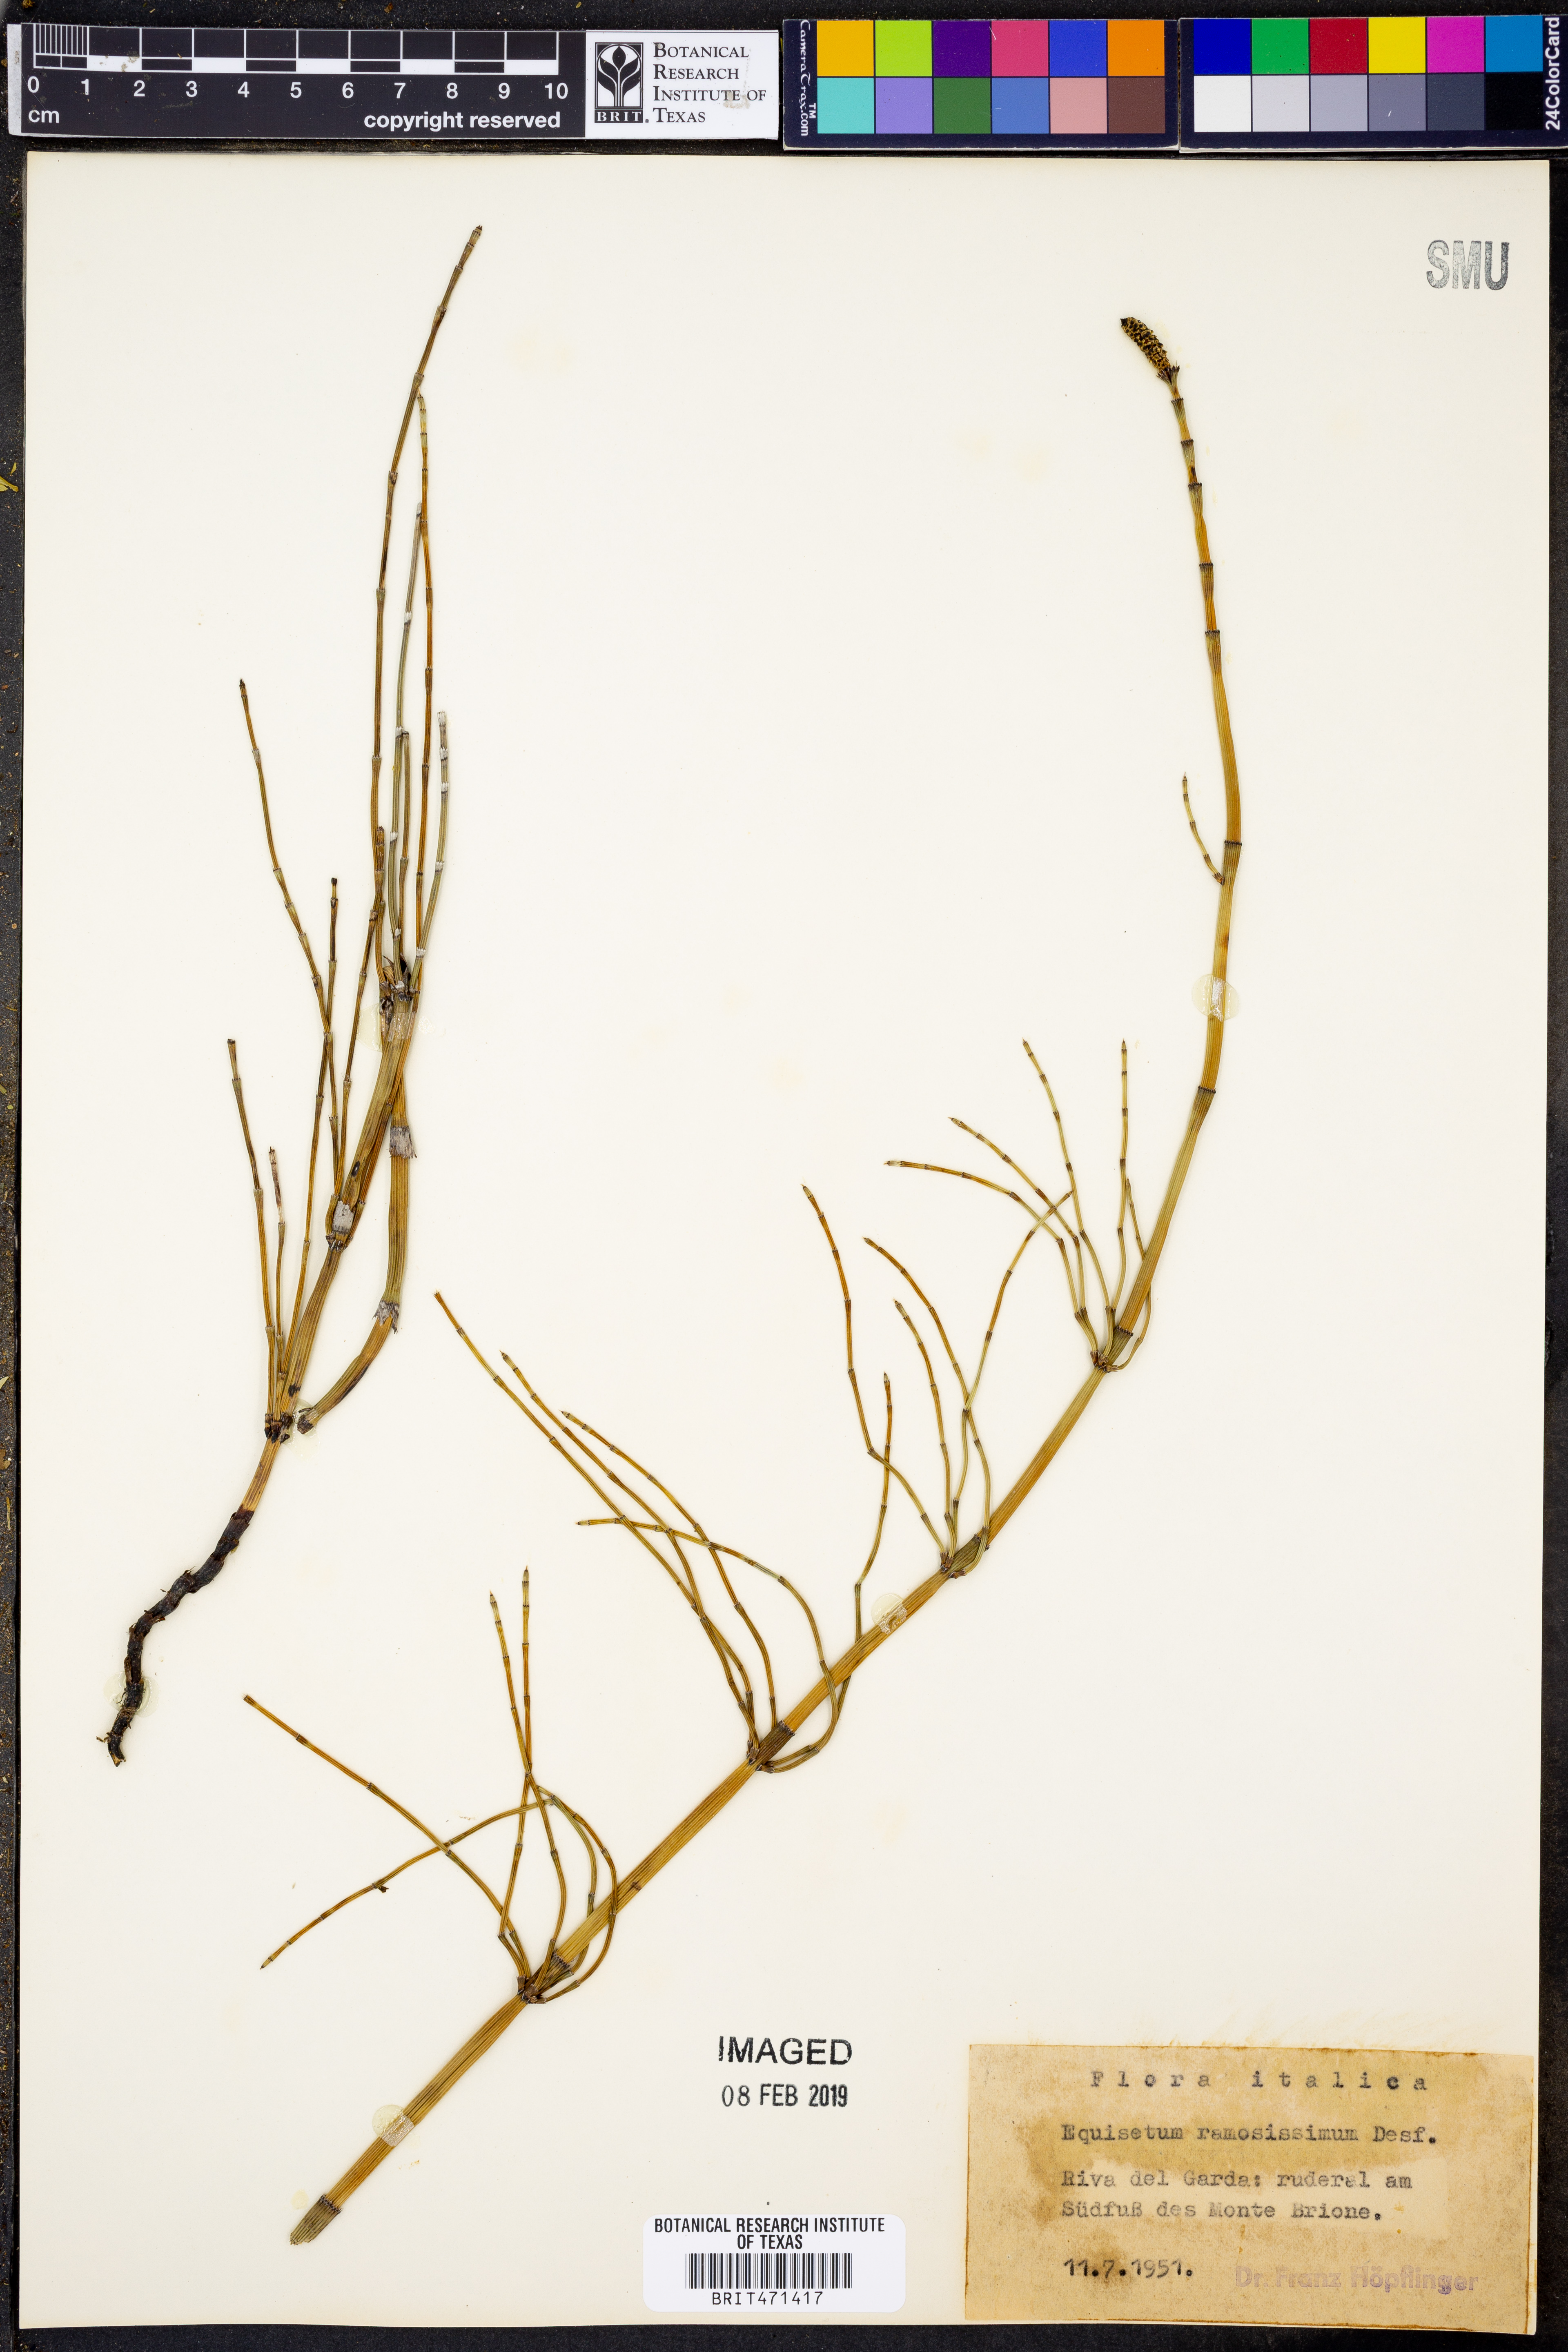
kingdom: Plantae
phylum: Tracheophyta
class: Polypodiopsida
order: Equisetales
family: Equisetaceae
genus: Equisetum
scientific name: Equisetum ramosissimum
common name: Branched horsetail
